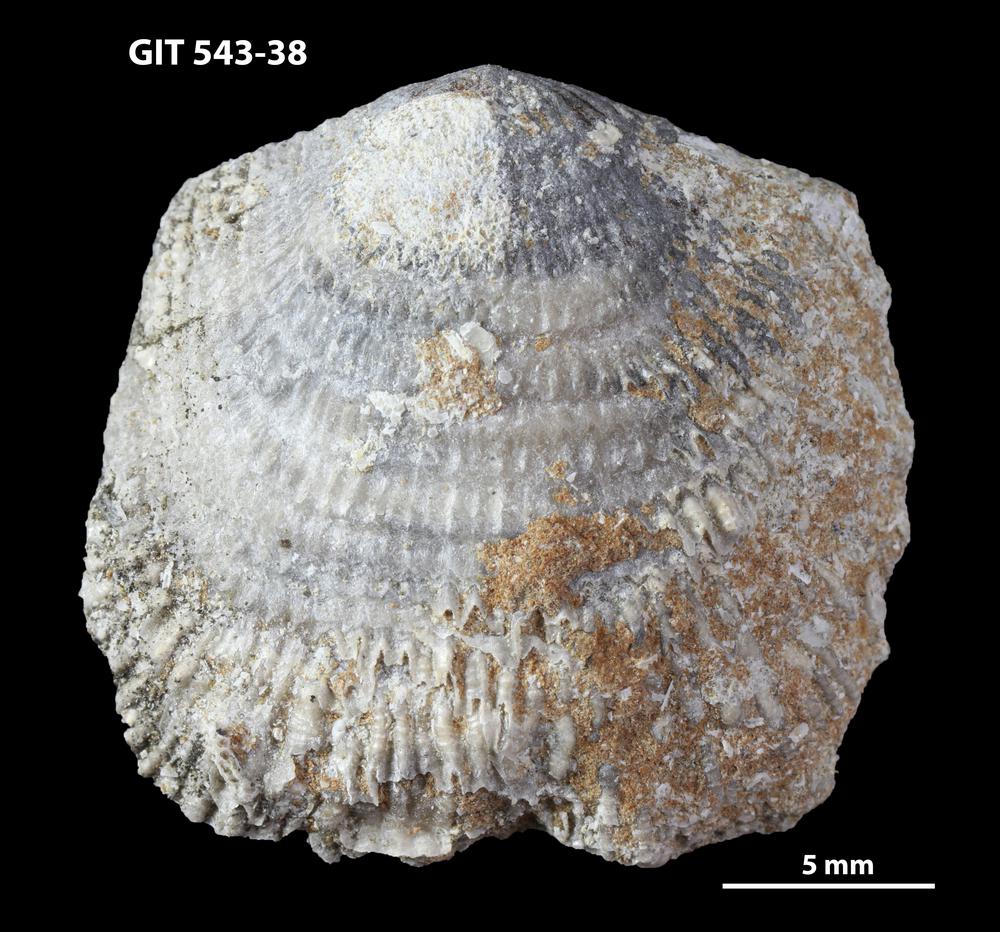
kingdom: Animalia
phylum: Brachiopoda
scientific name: Brachiopoda
